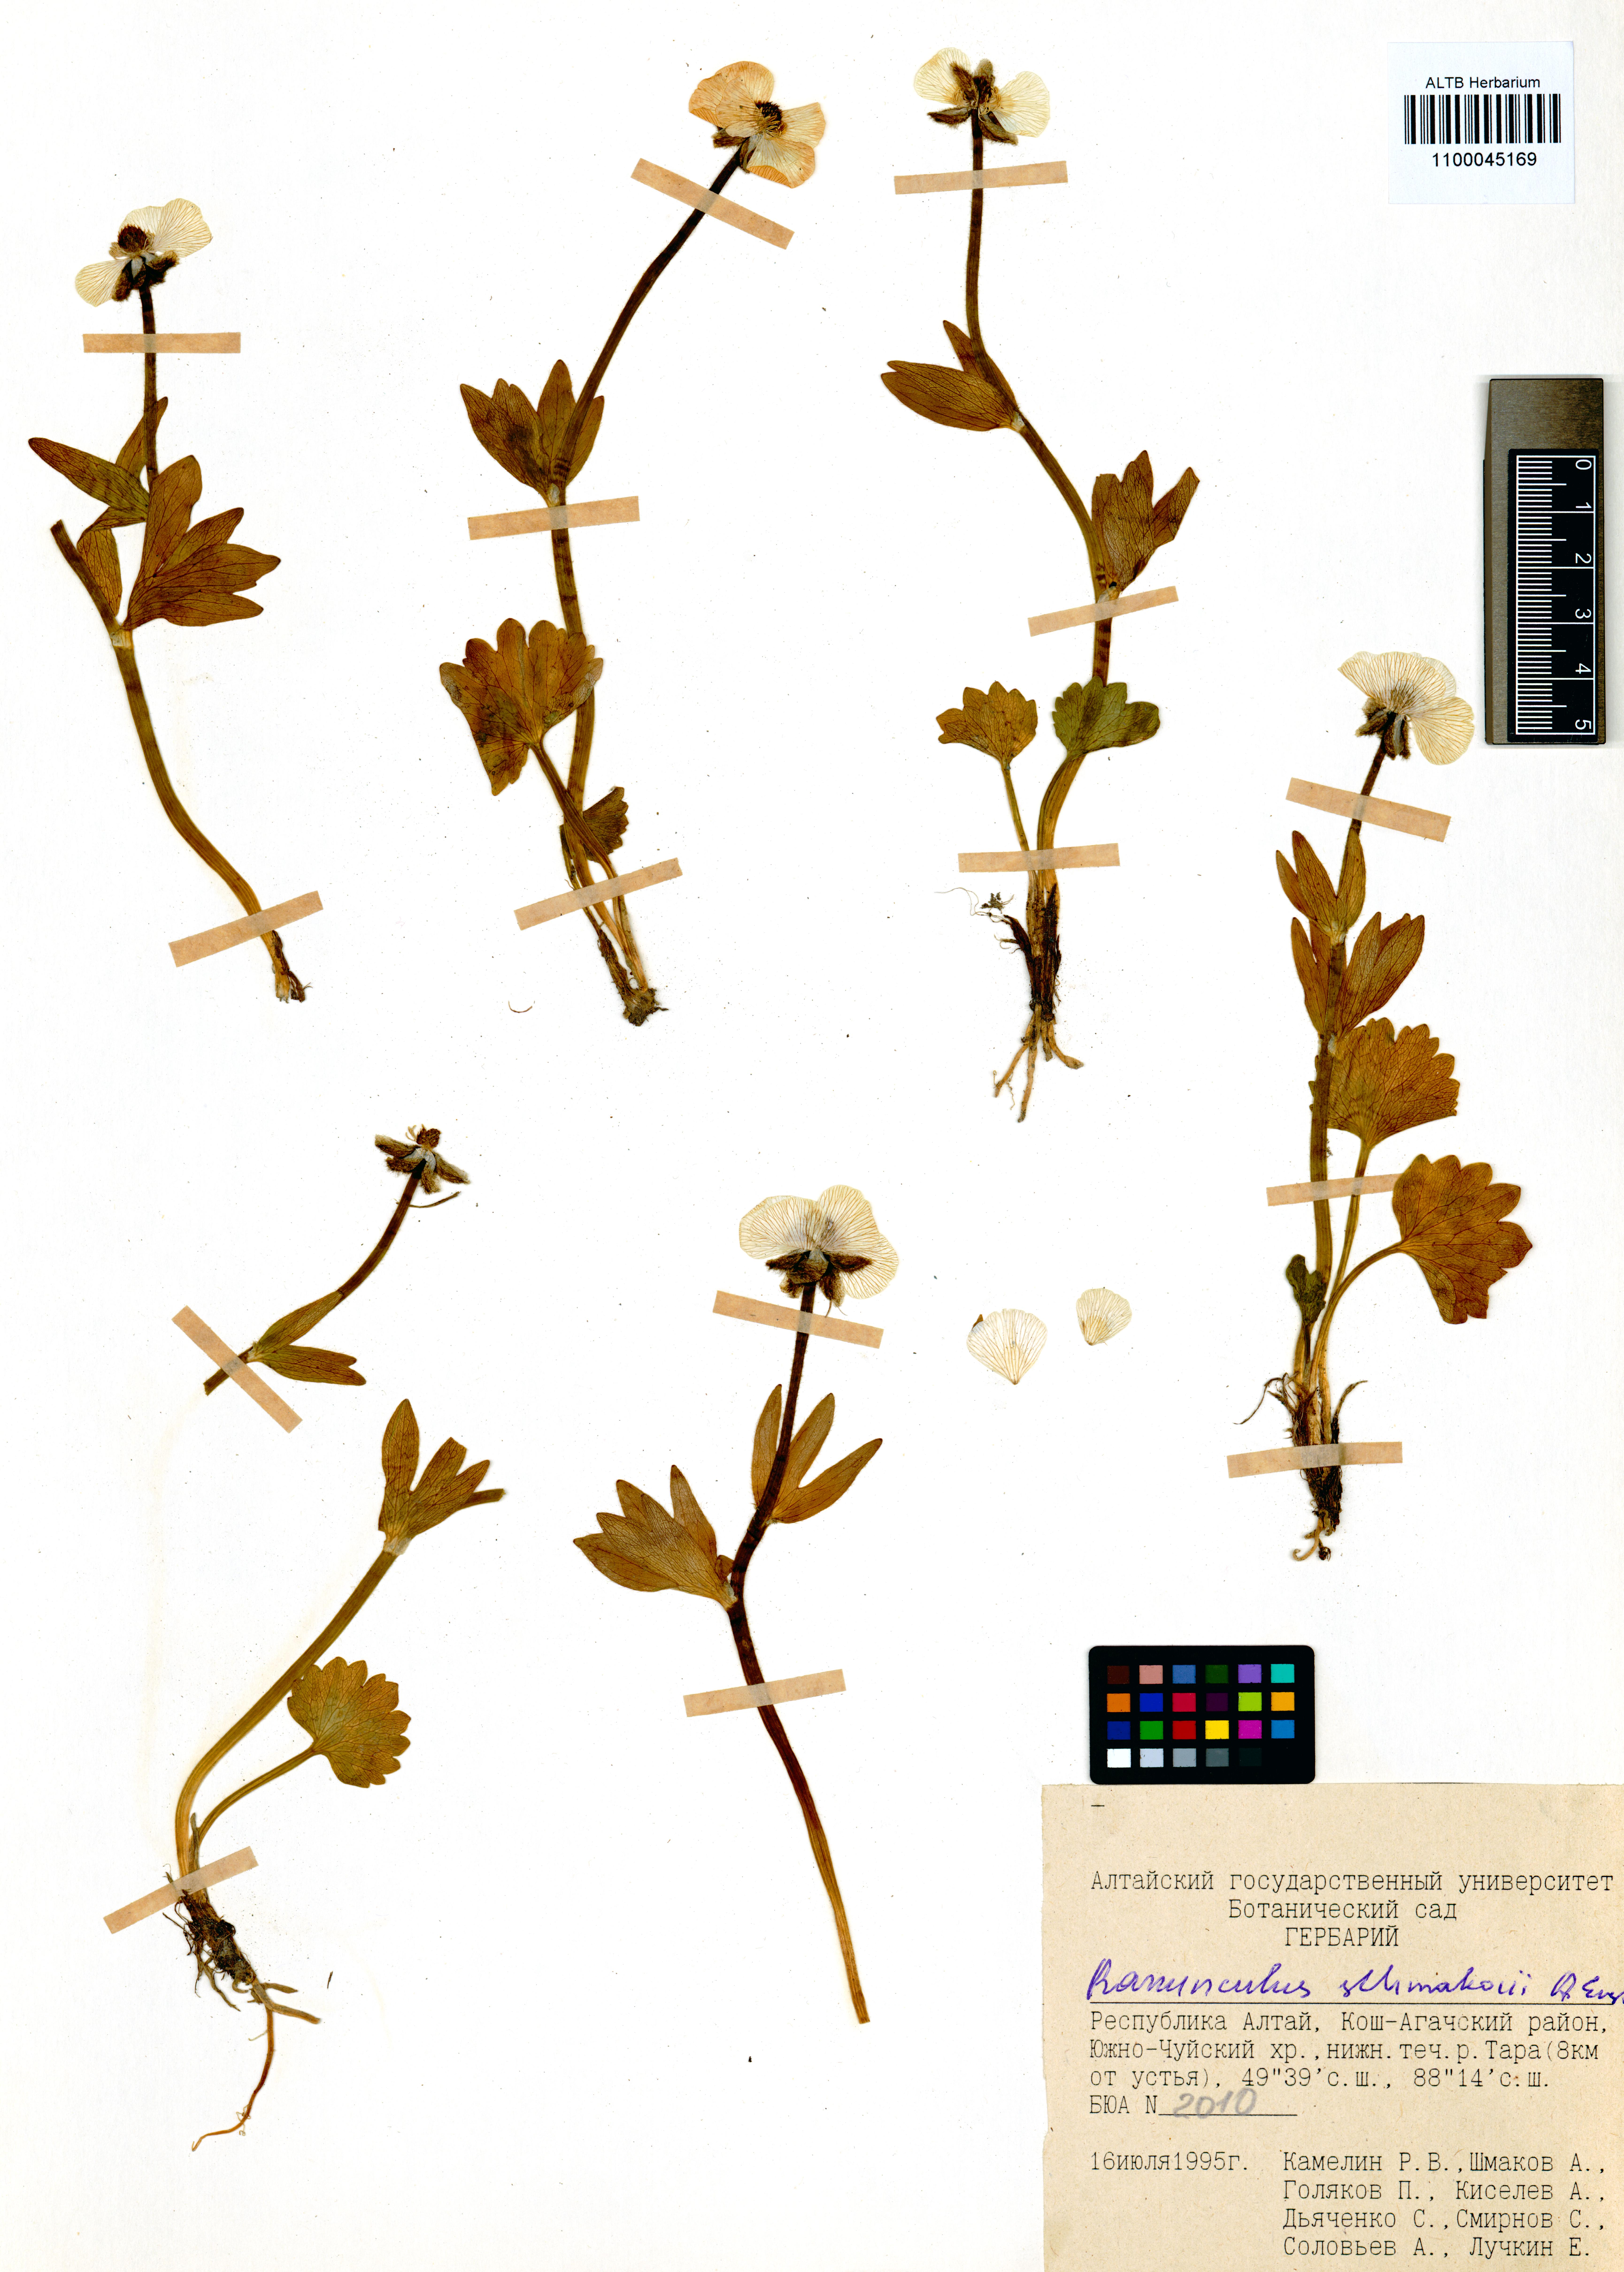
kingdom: Plantae
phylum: Tracheophyta
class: Magnoliopsida
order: Ranunculales
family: Ranunculaceae
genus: Ranunculus
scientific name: Ranunculus schmakovii
